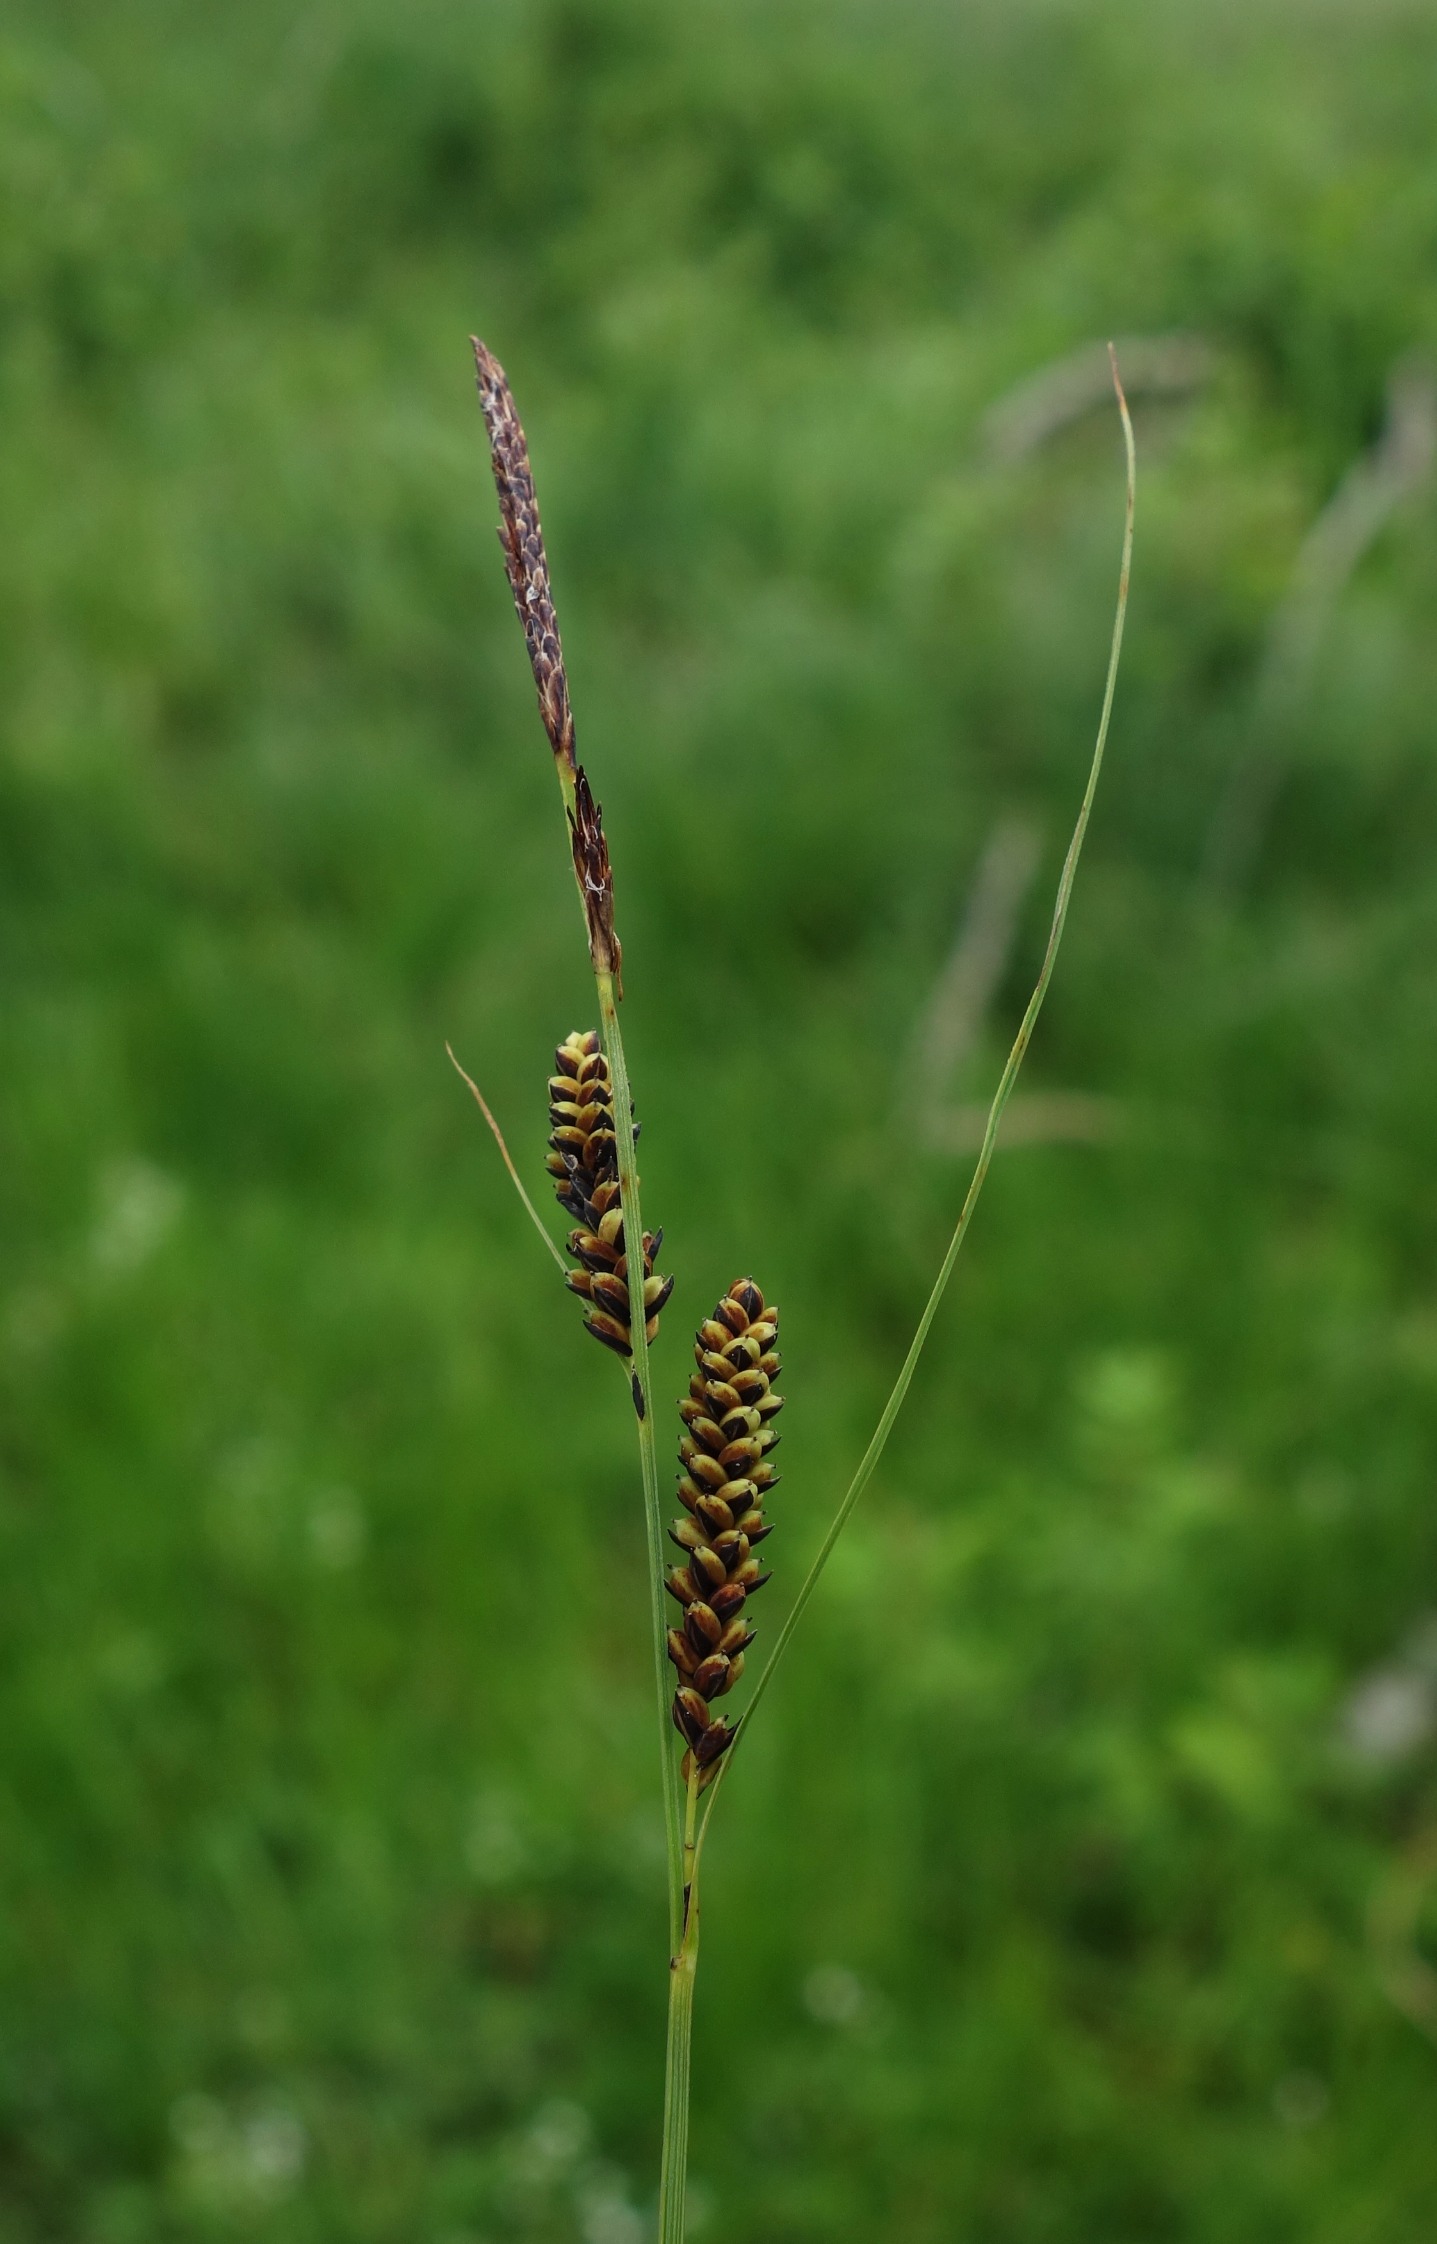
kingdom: Plantae
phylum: Tracheophyta
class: Liliopsida
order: Poales
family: Cyperaceae
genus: Carex
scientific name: Carex nigra
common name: Almindelig star
